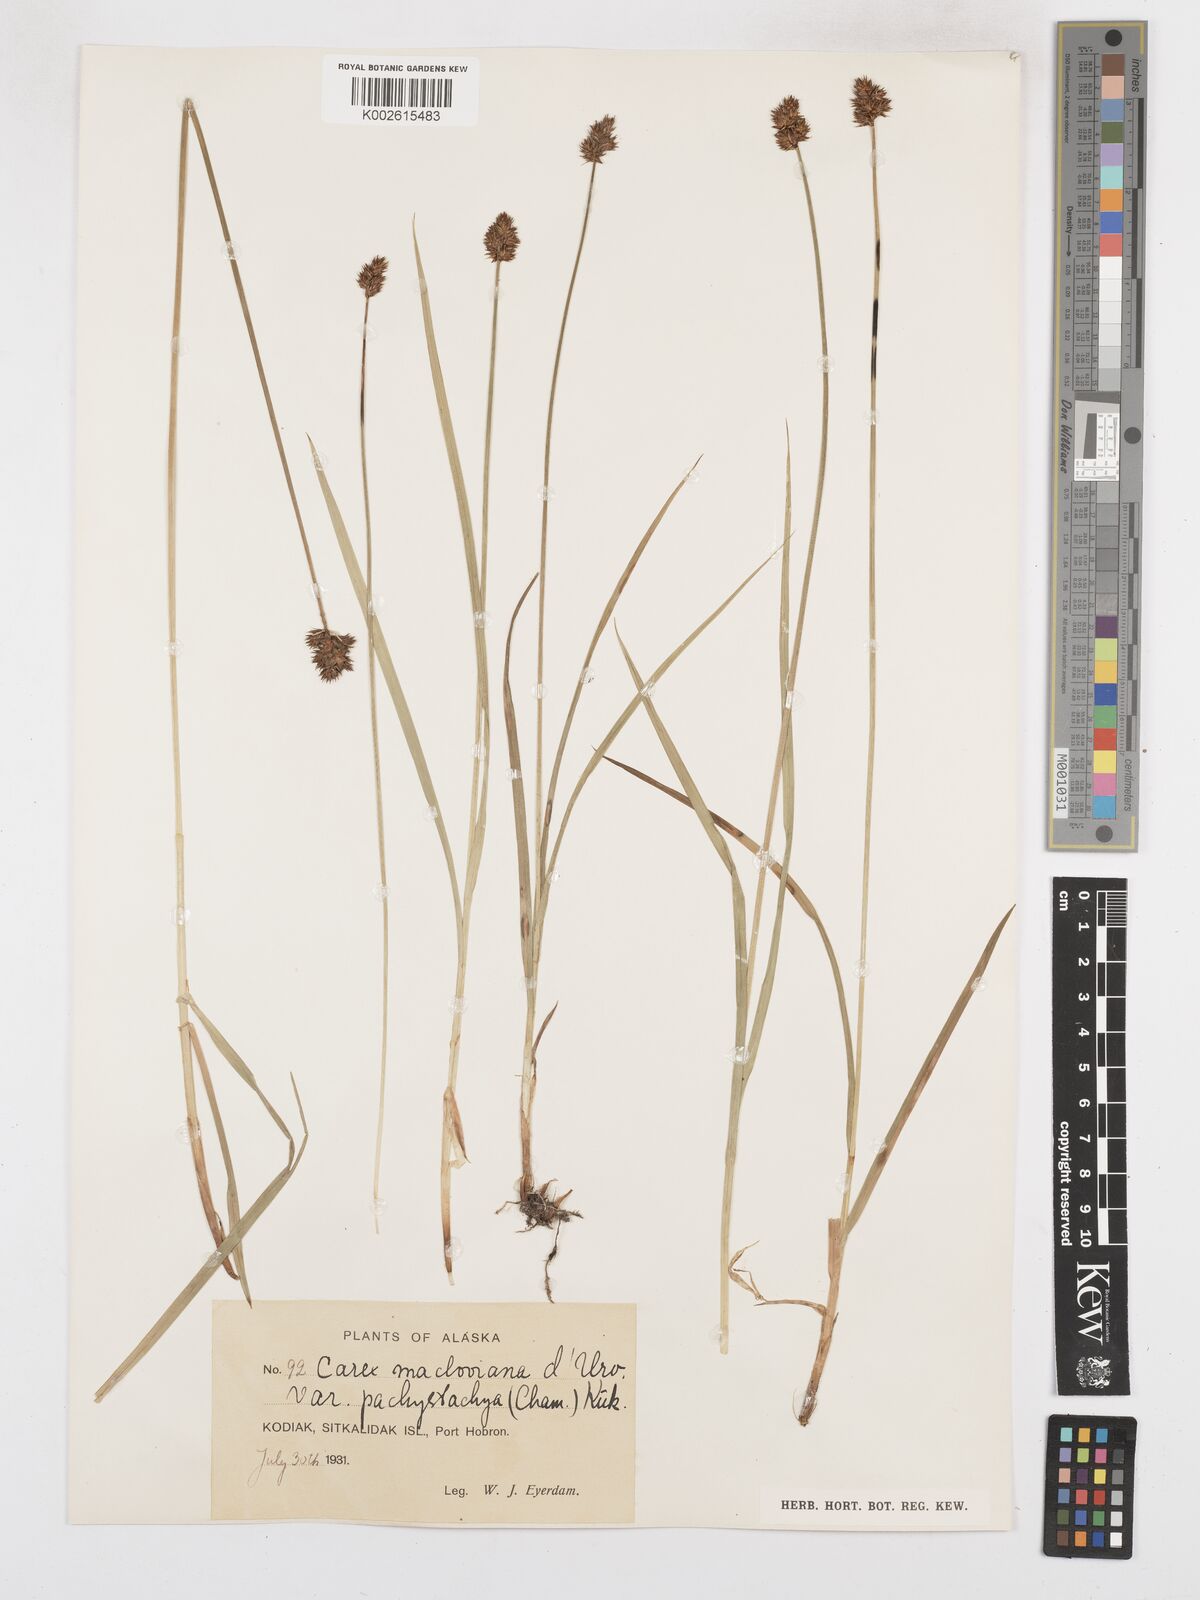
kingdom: Plantae
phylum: Tracheophyta
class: Liliopsida
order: Poales
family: Cyperaceae
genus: Carex
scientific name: Carex macloviana
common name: Falkland island sedge
